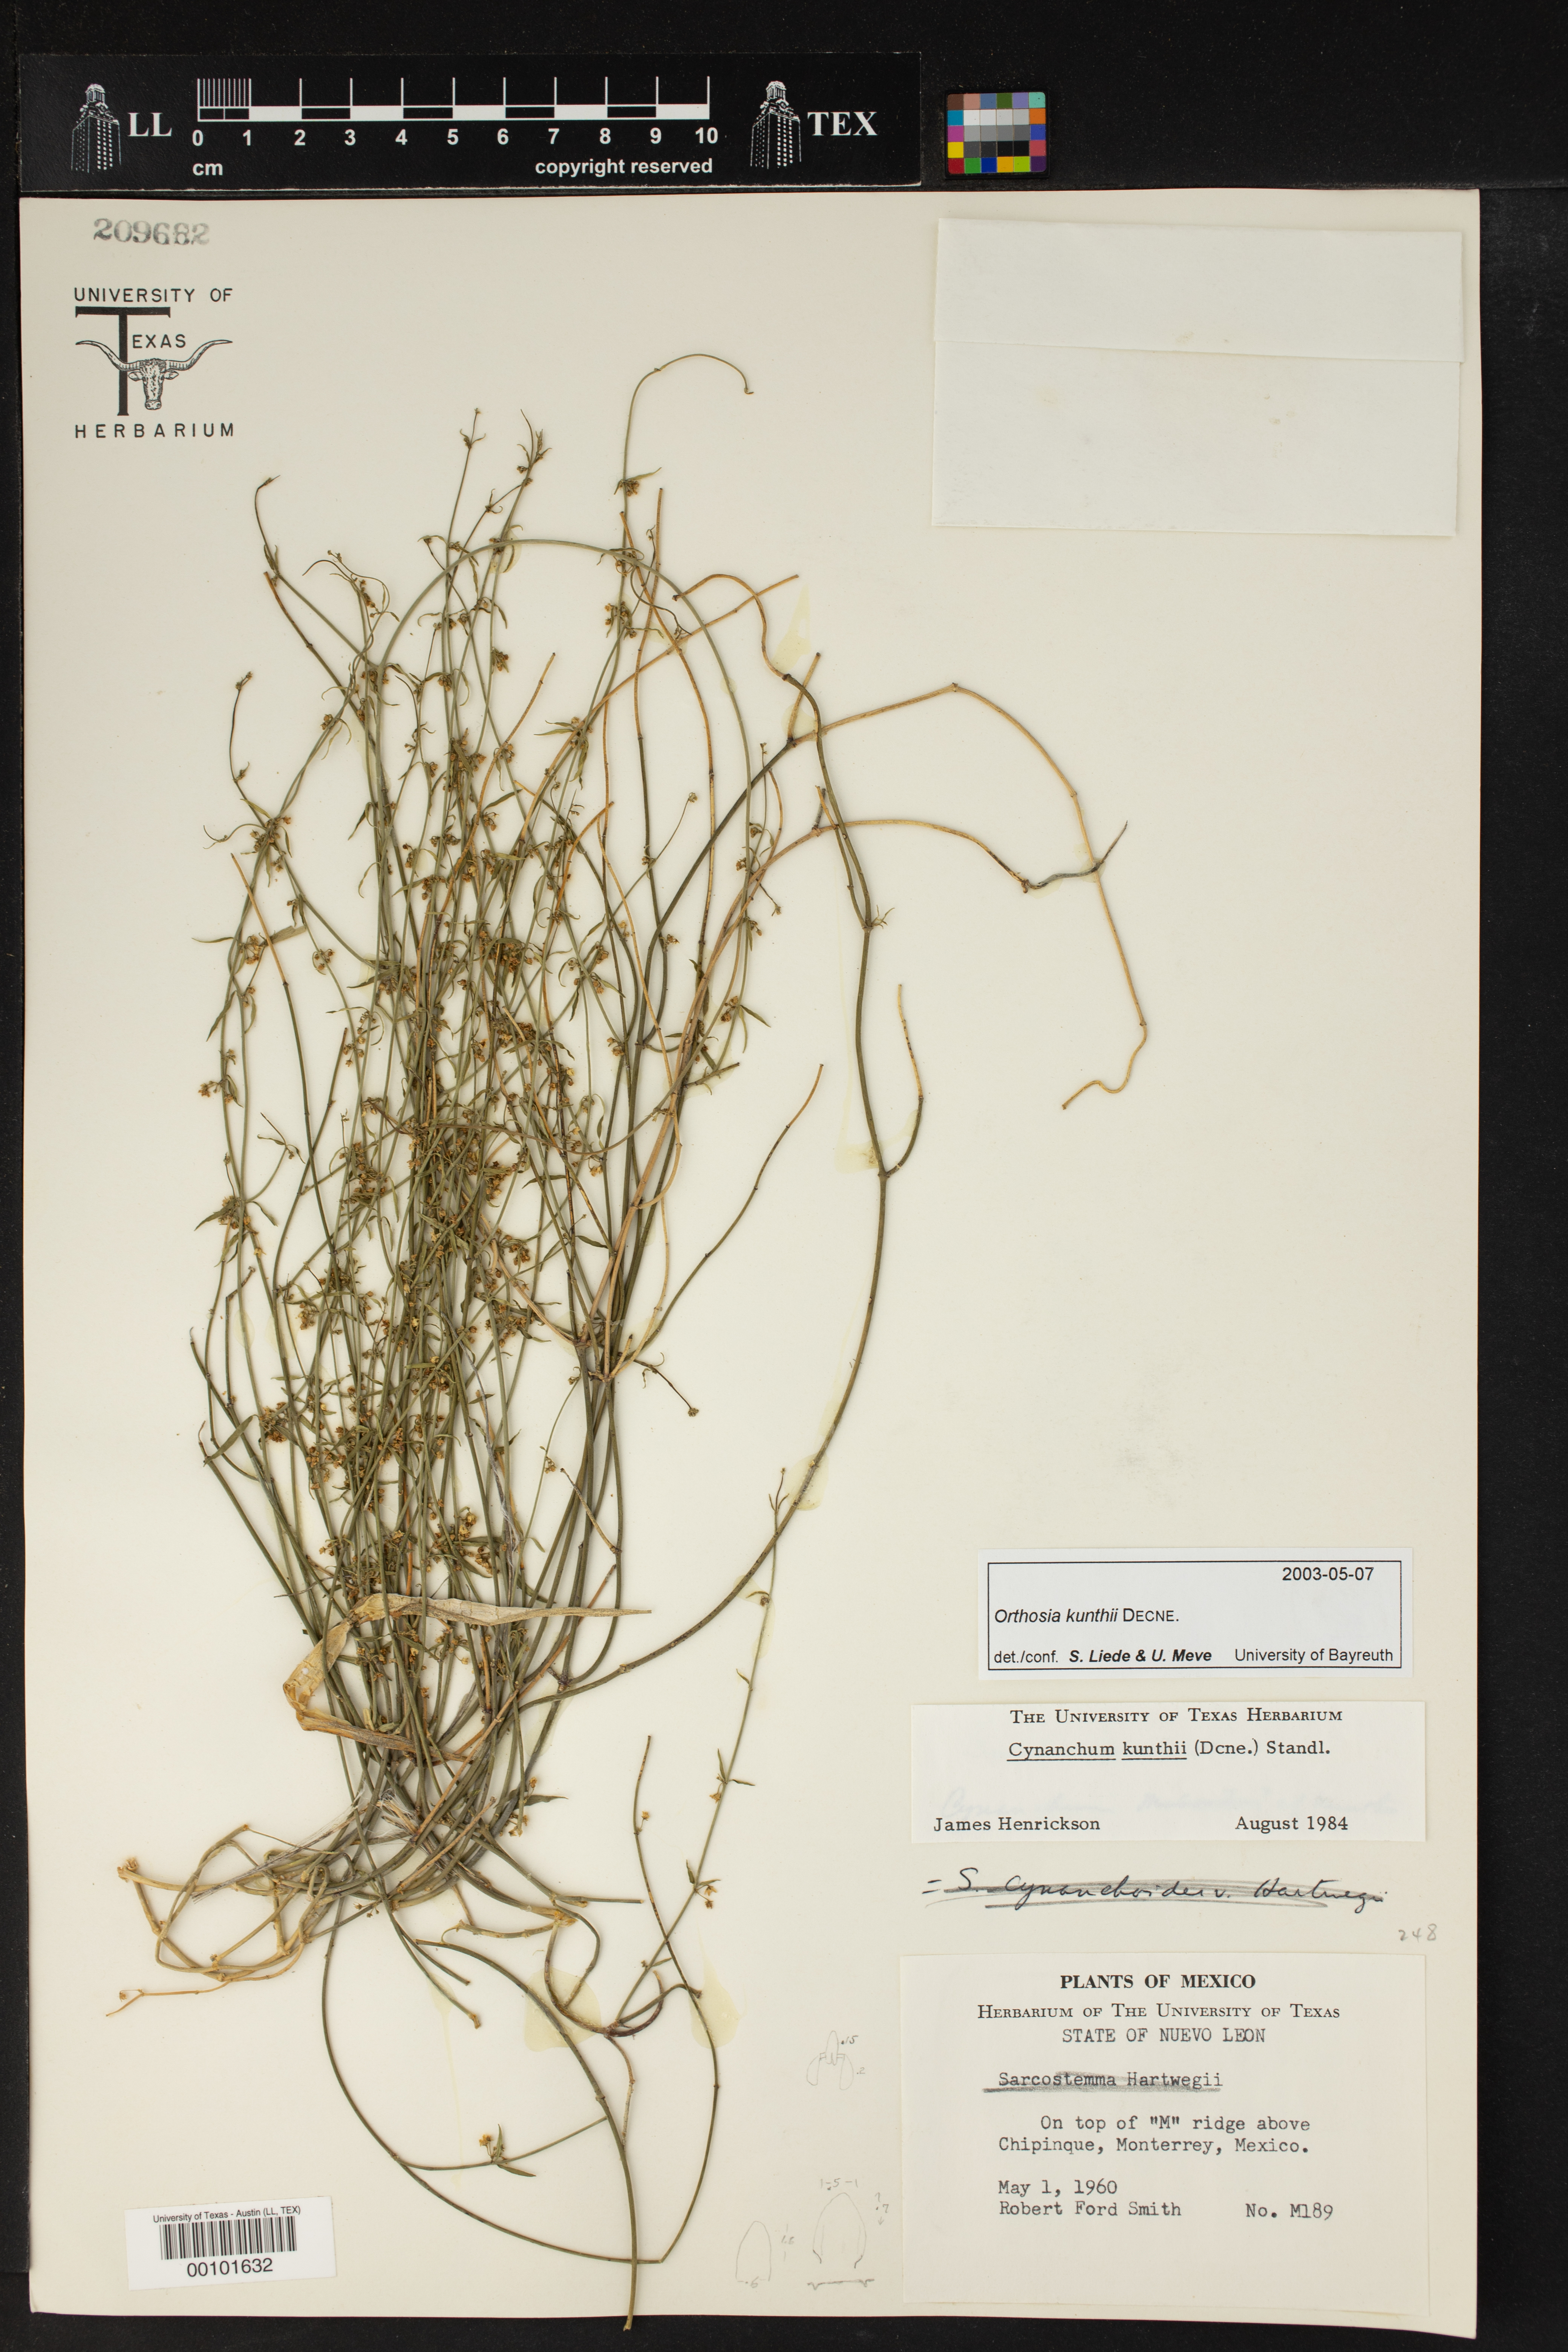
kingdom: Plantae
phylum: Tracheophyta
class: Magnoliopsida
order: Gentianales
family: Apocynaceae
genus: Orthosia
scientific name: Orthosia bonplandiana
